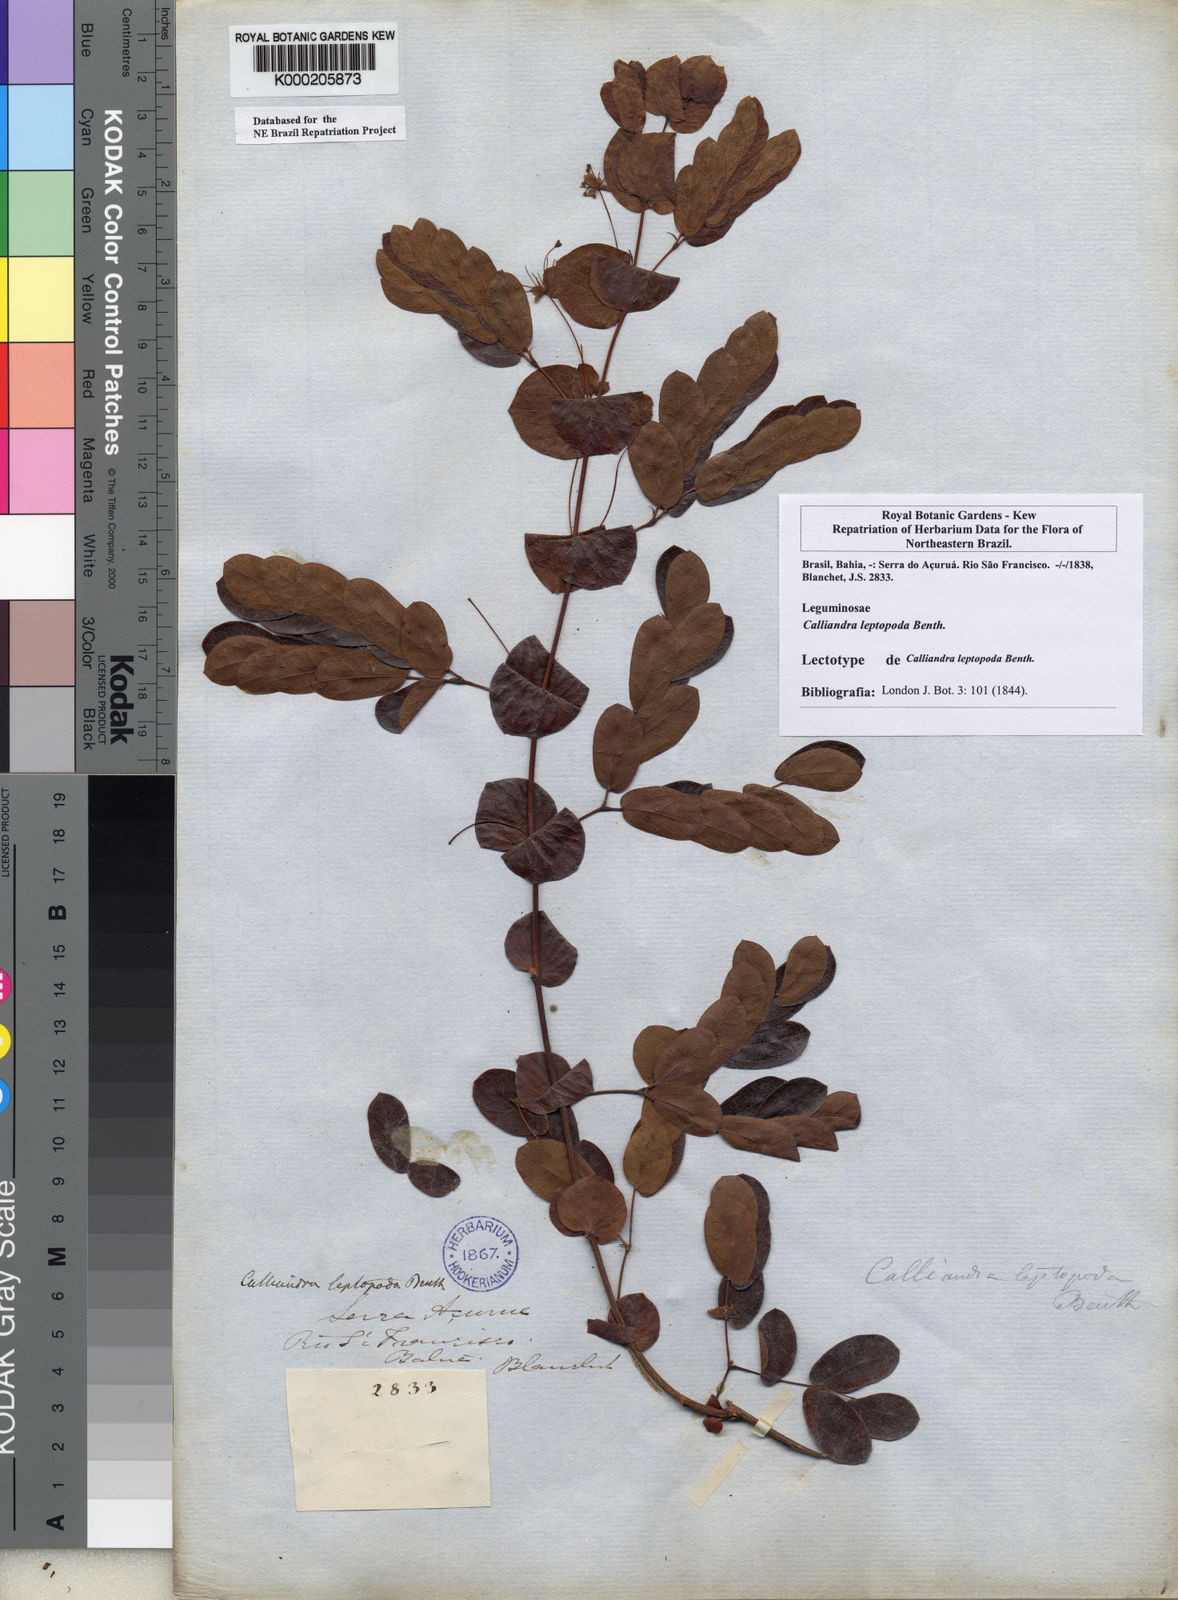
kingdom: Plantae
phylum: Tracheophyta
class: Magnoliopsida
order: Fabales
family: Fabaceae
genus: Calliandra
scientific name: Calliandra leptopoda
